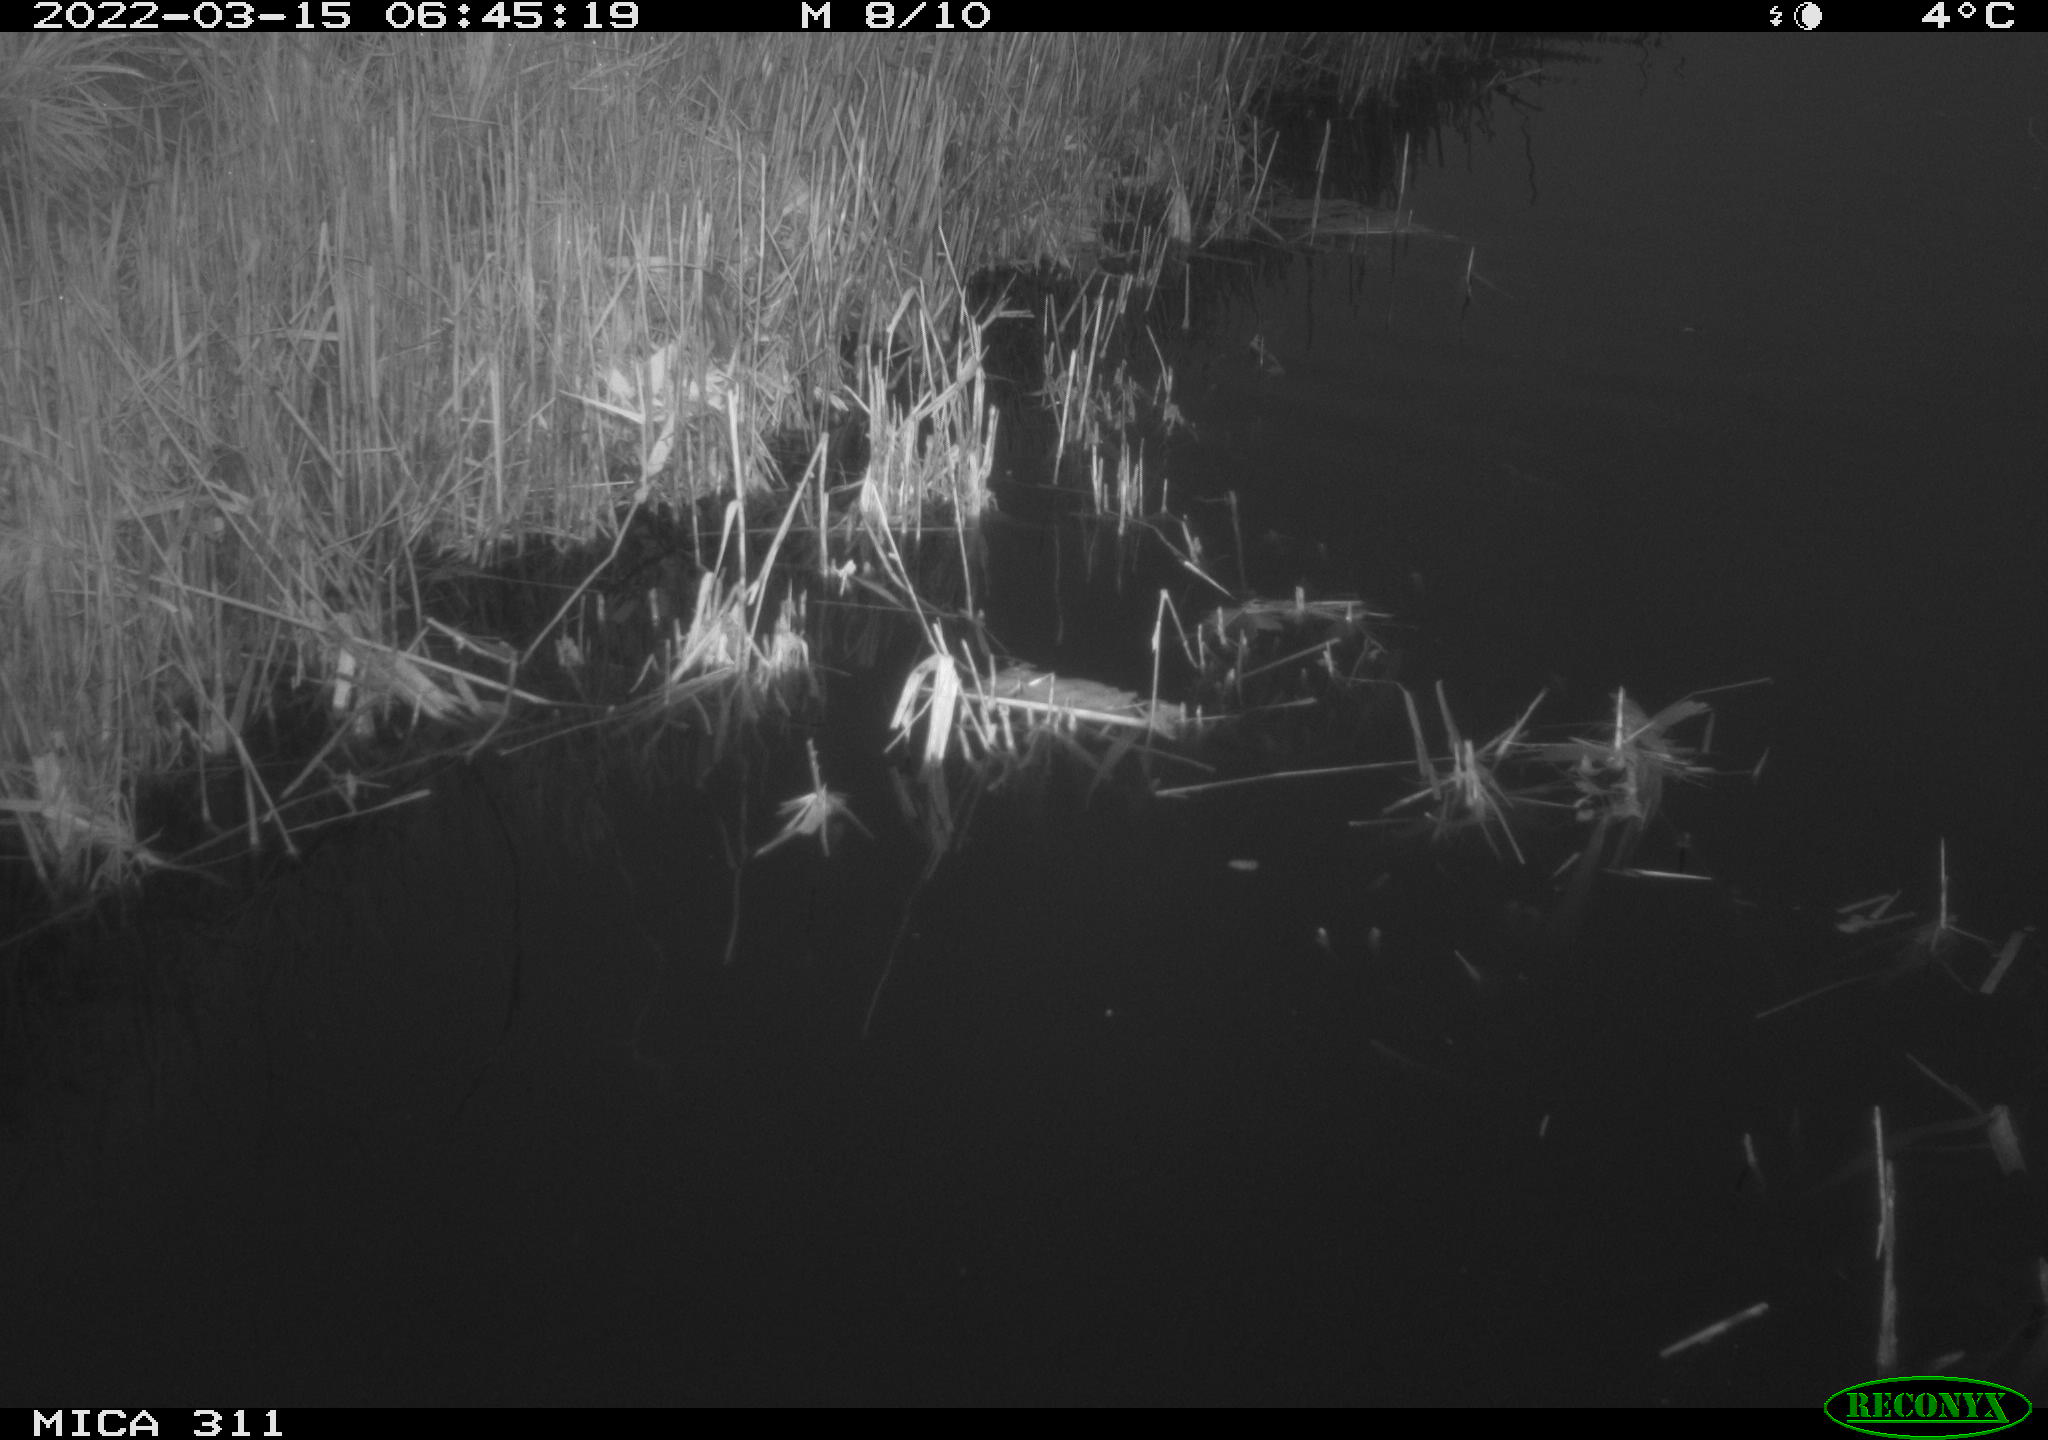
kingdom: Animalia
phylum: Chordata
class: Aves
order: Gruiformes
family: Rallidae
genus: Gallinula
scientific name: Gallinula chloropus
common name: Common moorhen
